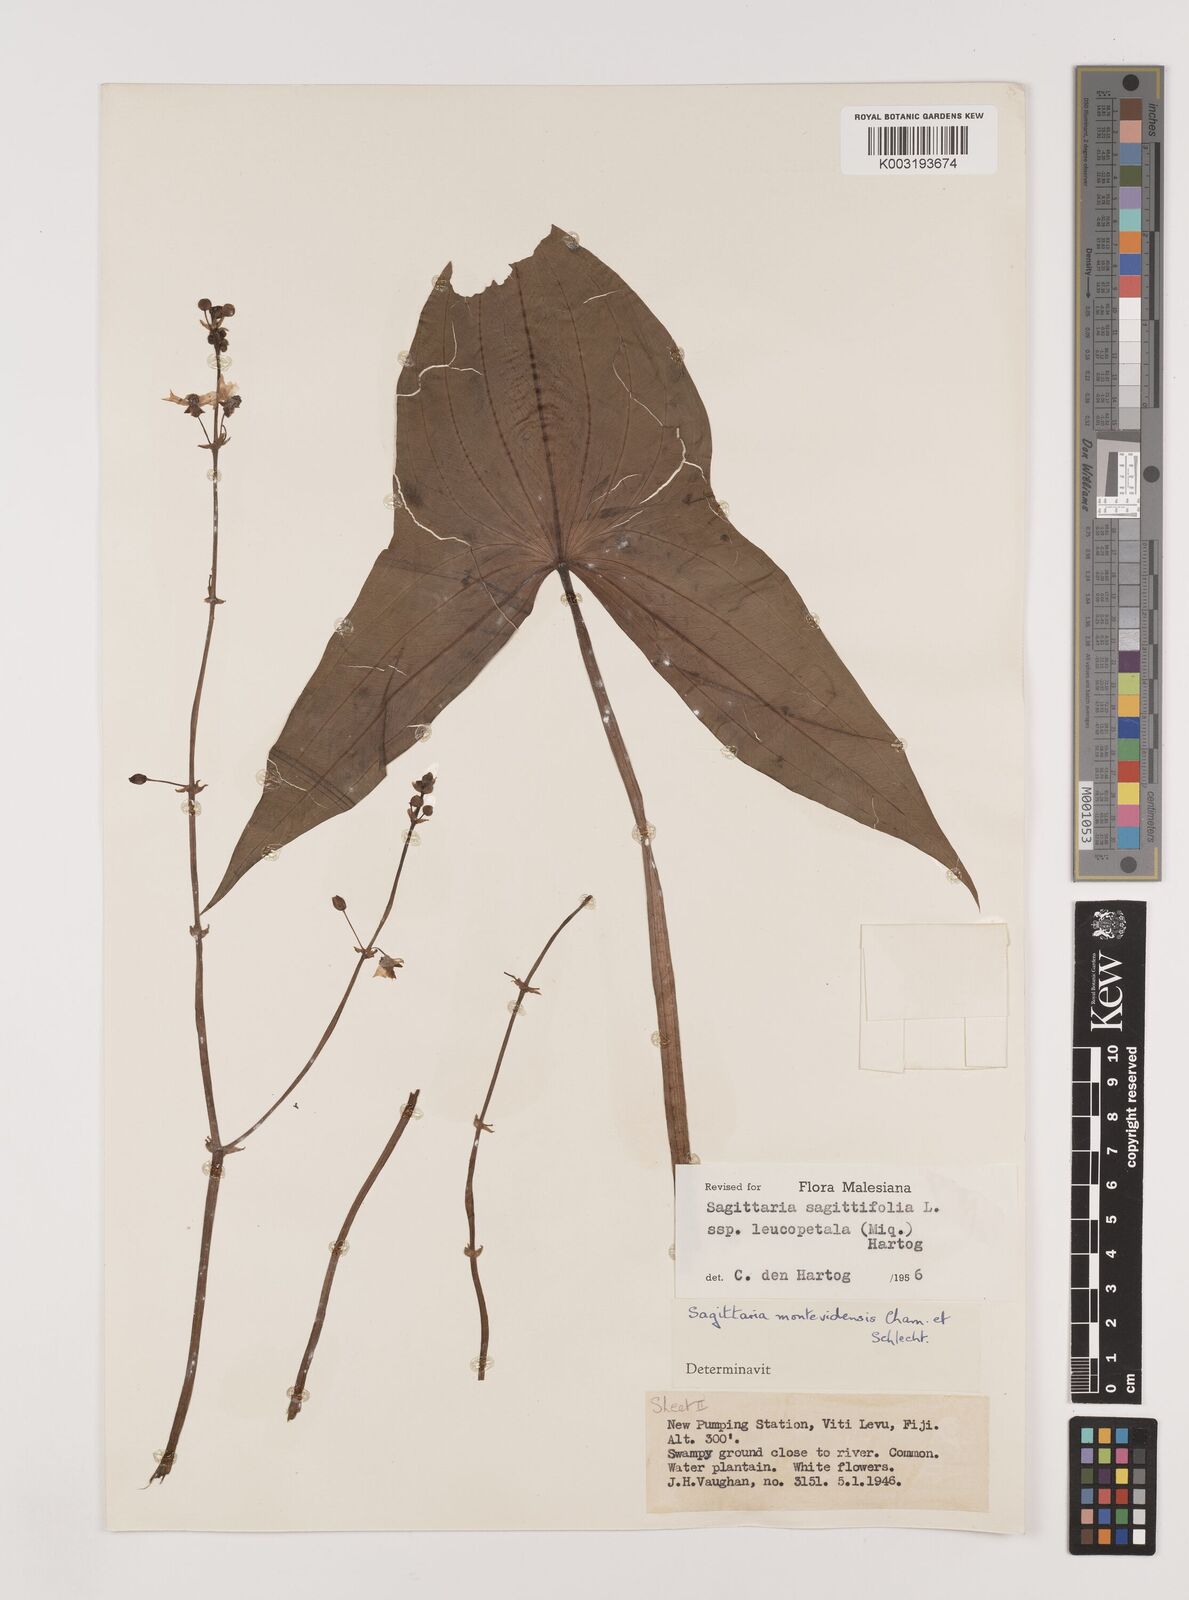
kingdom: Plantae
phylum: Tracheophyta
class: Liliopsida
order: Alismatales
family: Alismataceae
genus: Sagittaria
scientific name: Sagittaria trifolia
